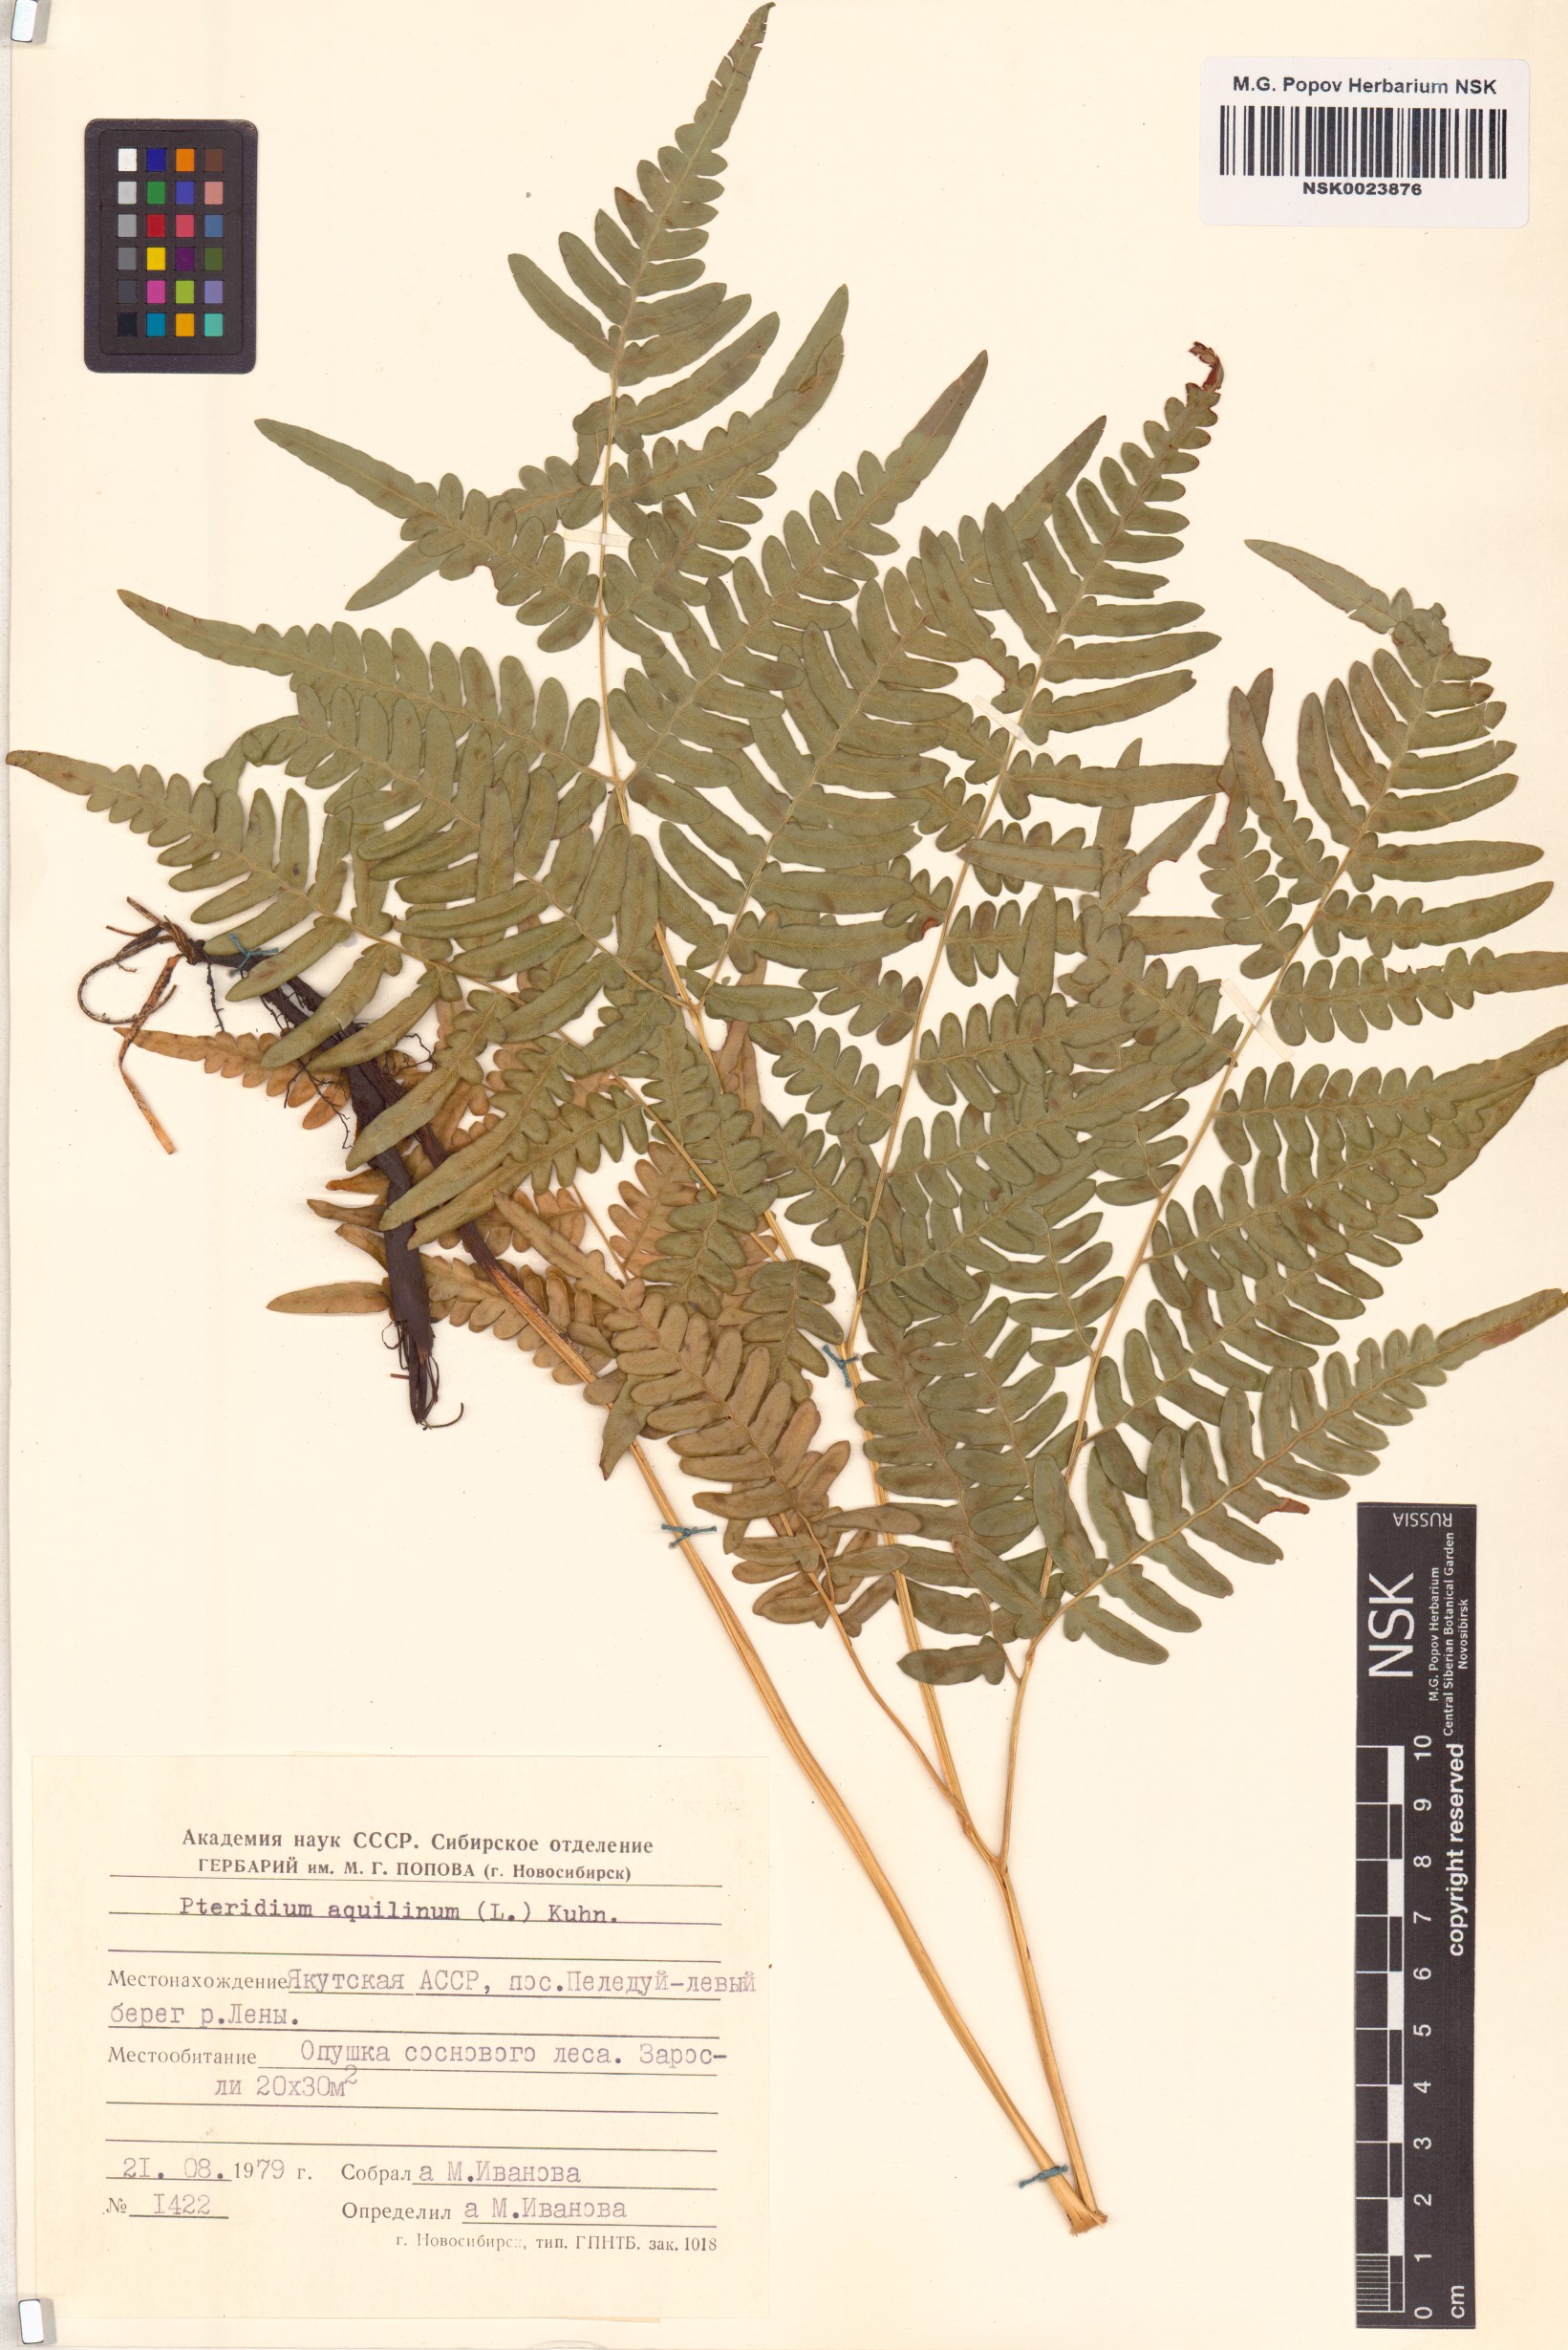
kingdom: Plantae
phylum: Tracheophyta
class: Polypodiopsida
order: Polypodiales
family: Dennstaedtiaceae
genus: Pteridium
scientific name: Pteridium aquilinum
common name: Bracken
